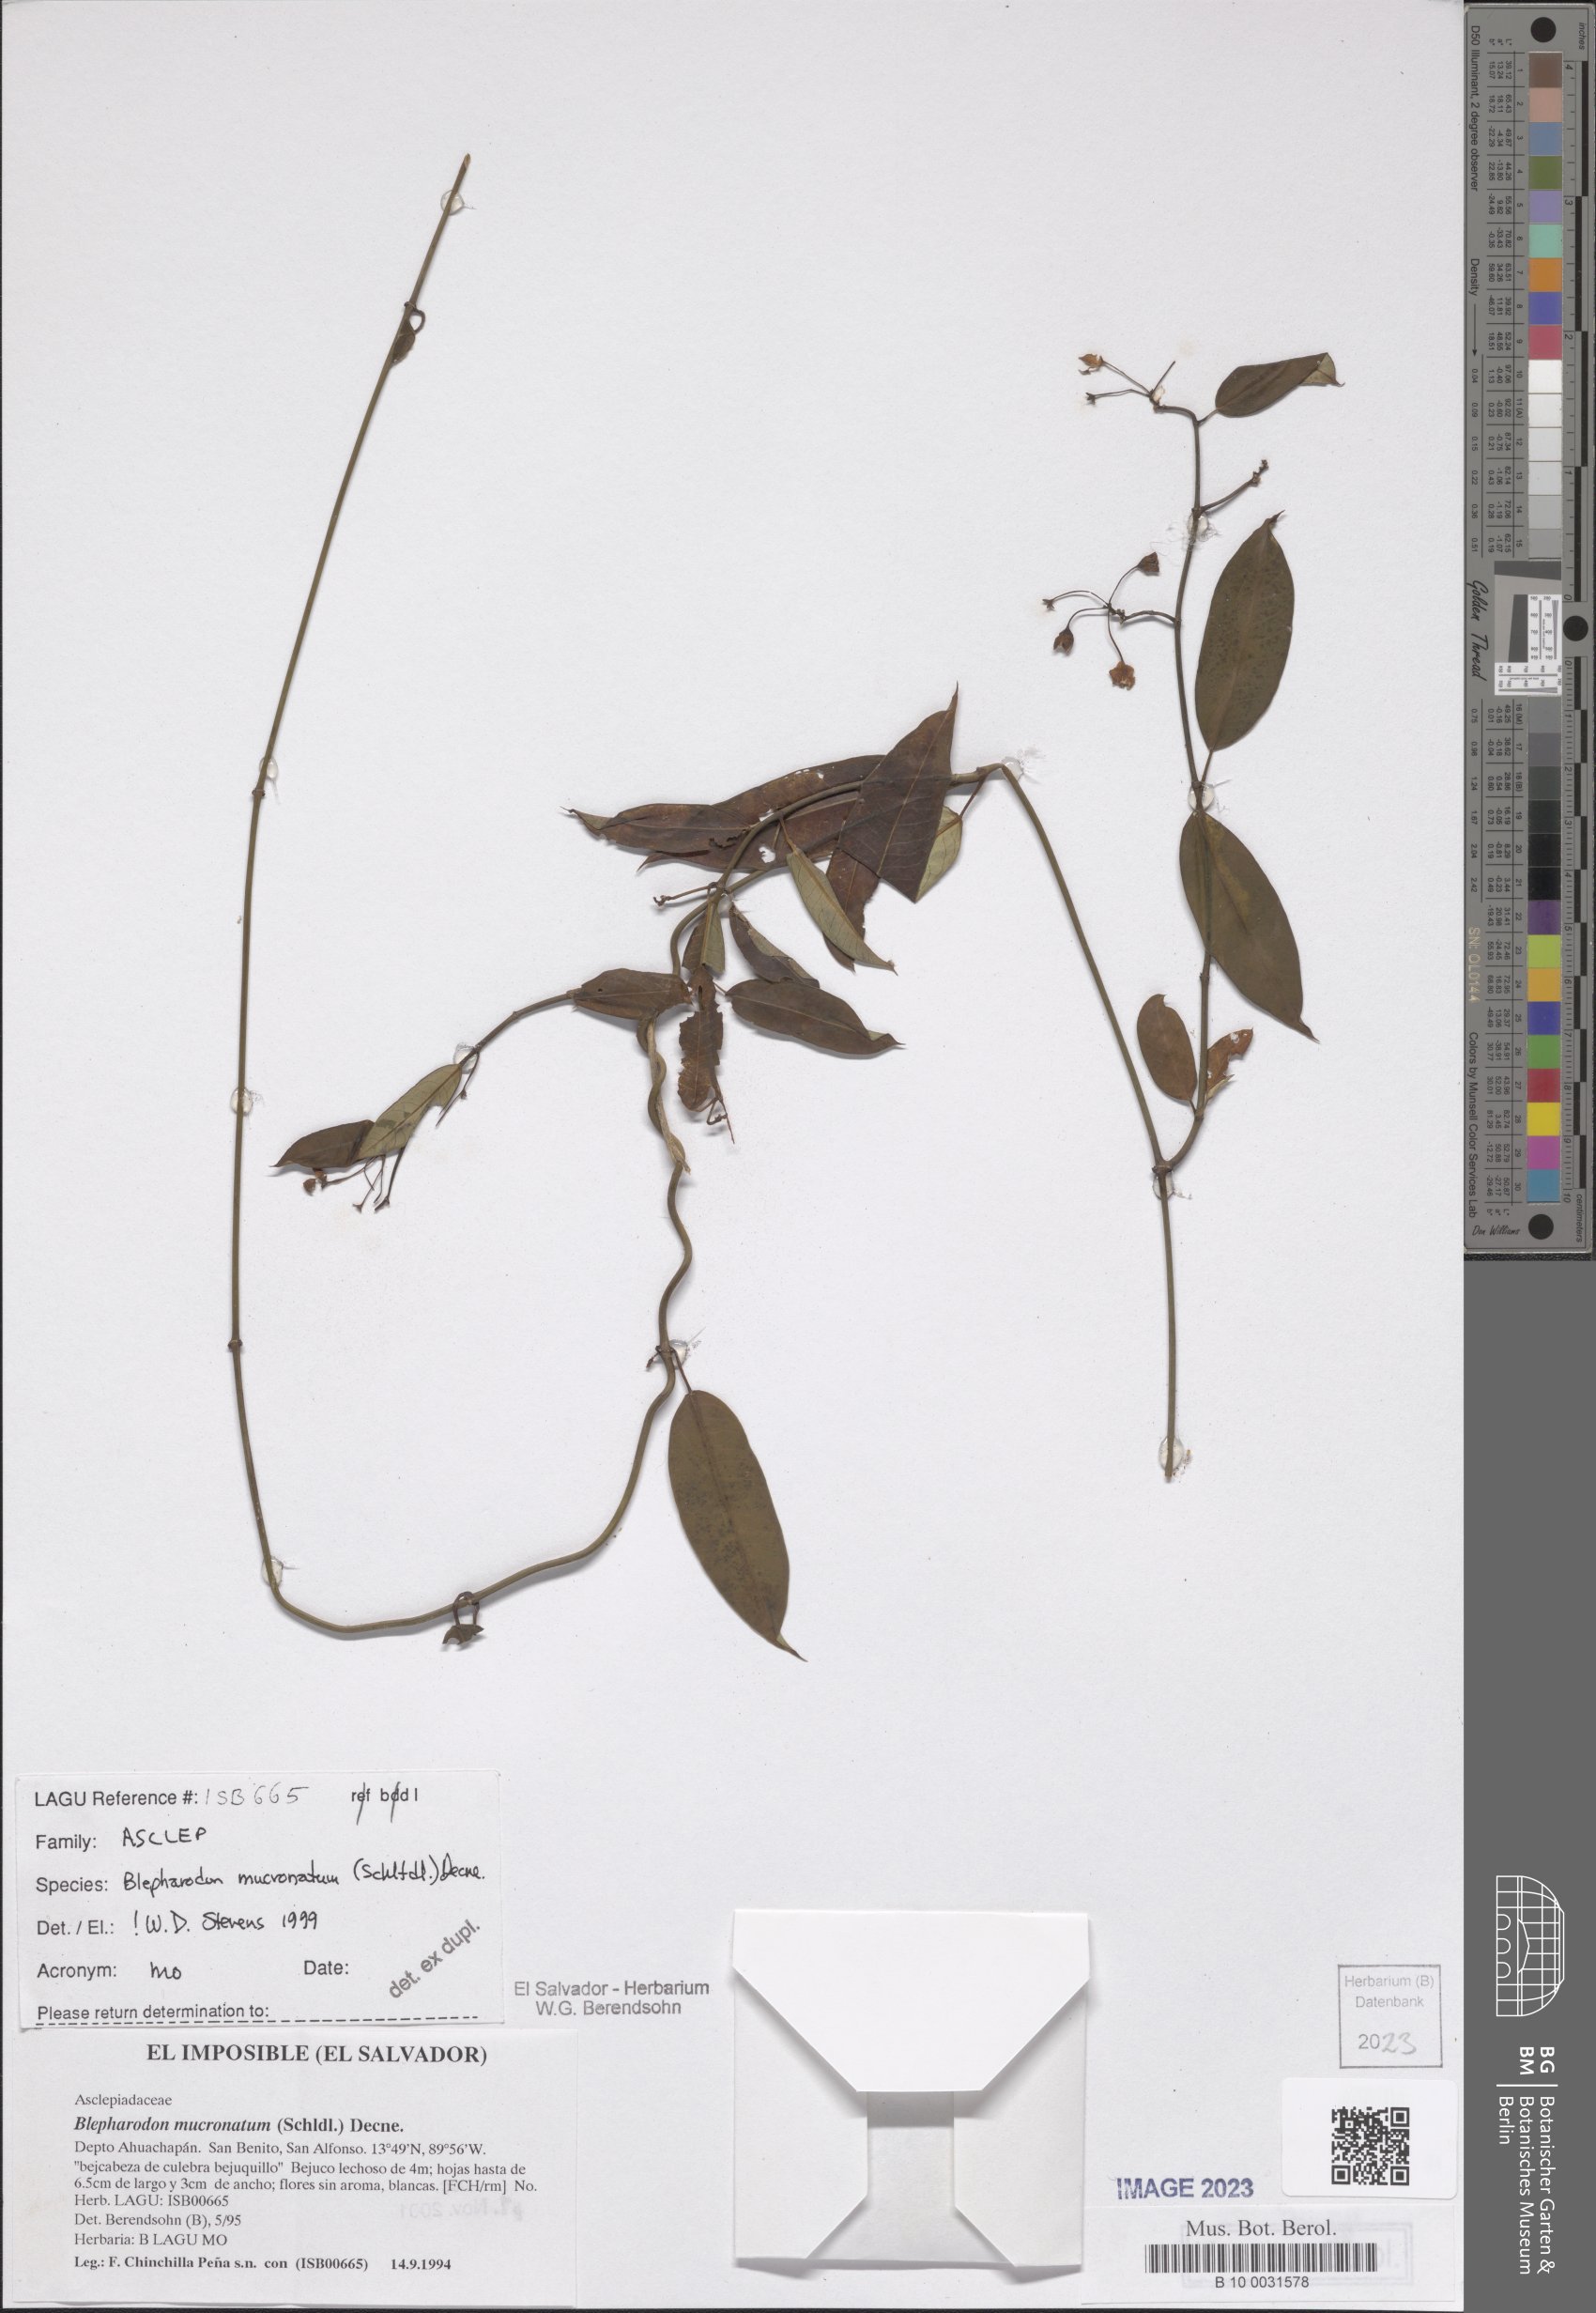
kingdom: Plantae
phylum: Tracheophyta
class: Magnoliopsida
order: Gentianales
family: Apocynaceae
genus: Vailia
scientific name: Vailia anomala
